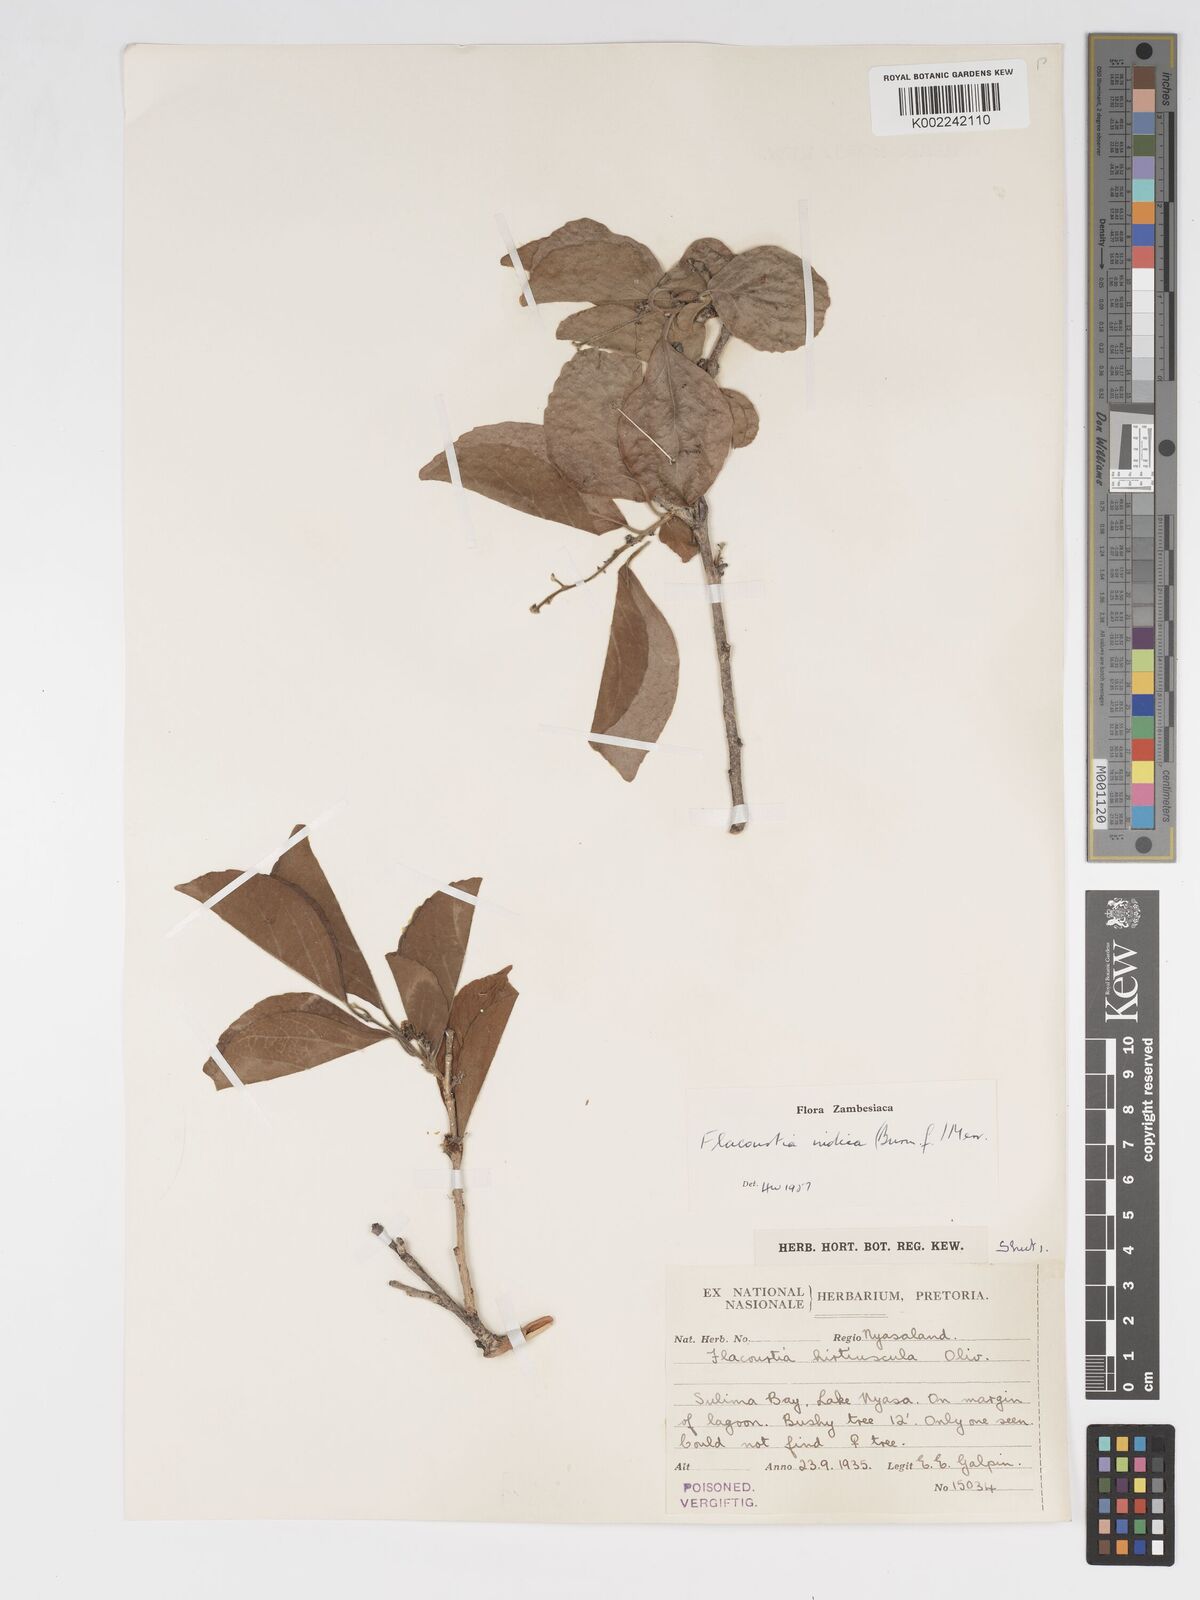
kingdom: Plantae
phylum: Tracheophyta
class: Magnoliopsida
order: Malpighiales
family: Salicaceae
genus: Flacourtia
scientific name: Flacourtia indica
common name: Governor's plum
